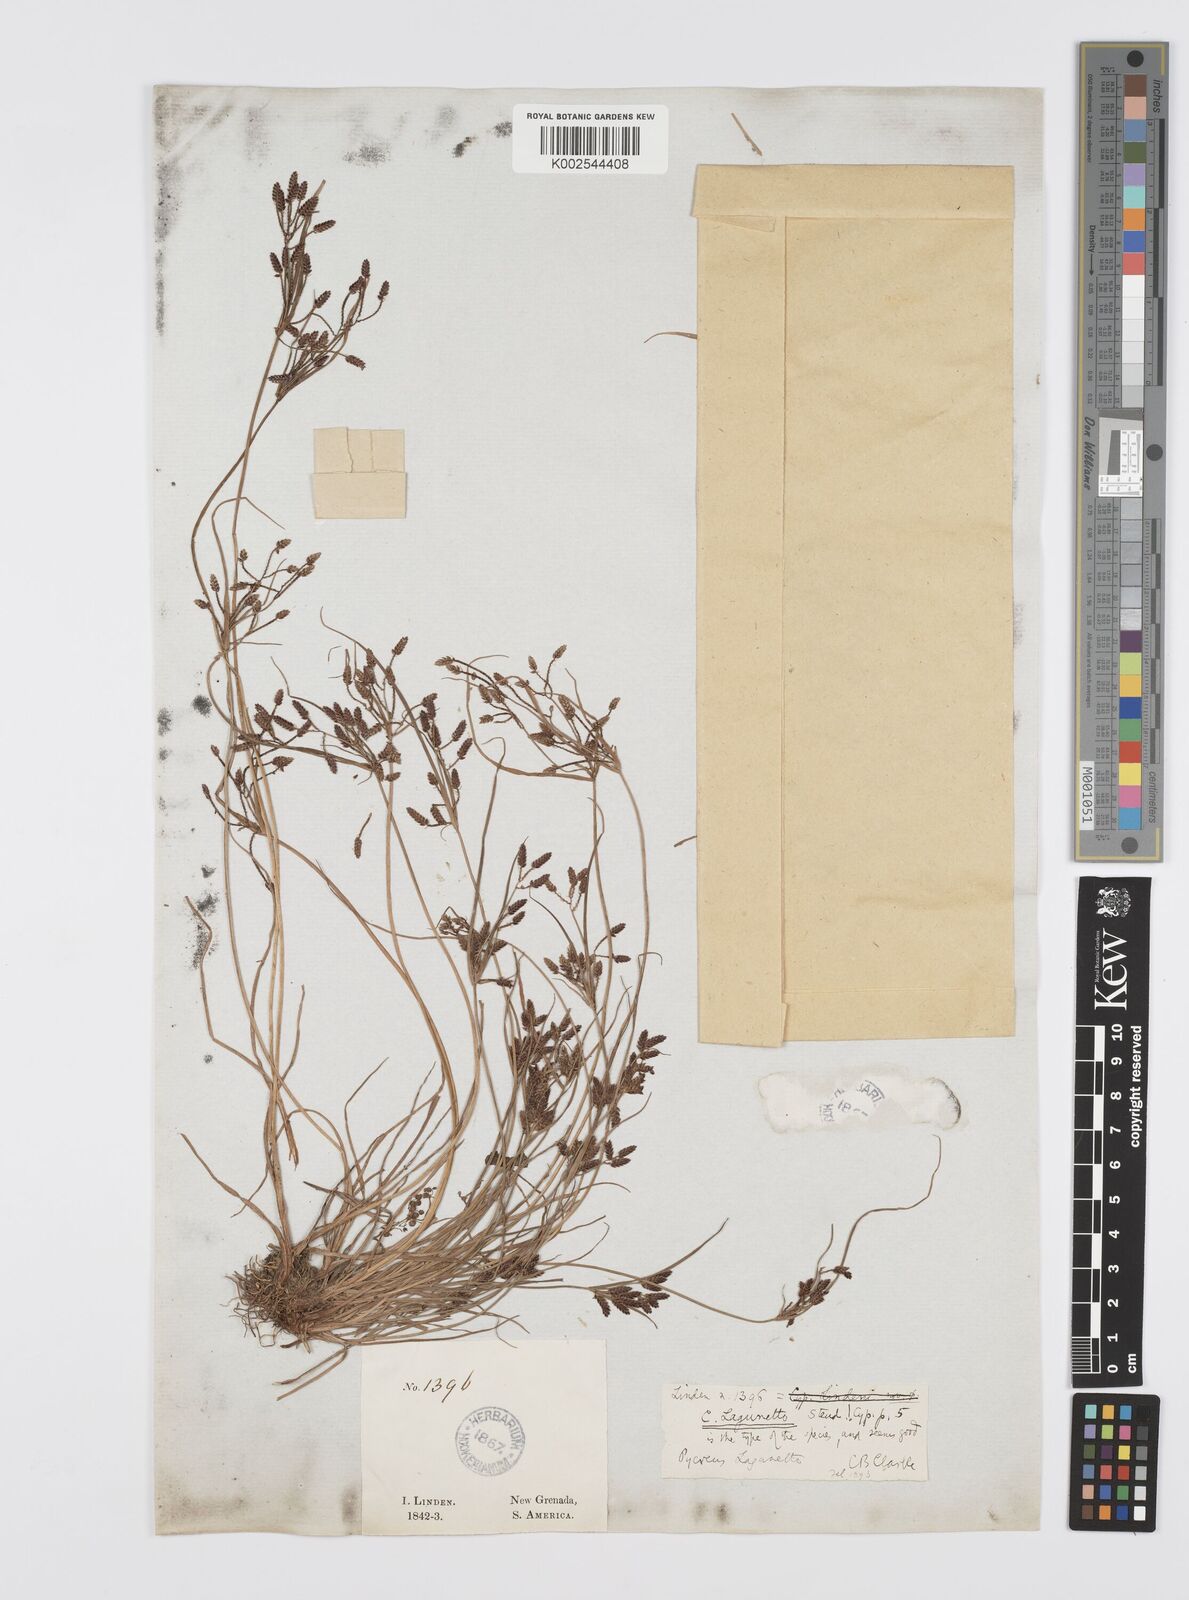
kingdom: Plantae
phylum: Tracheophyta
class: Liliopsida
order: Poales
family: Cyperaceae
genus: Cyperus
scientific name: Cyperus bipartitus
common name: Brook flatsedge
